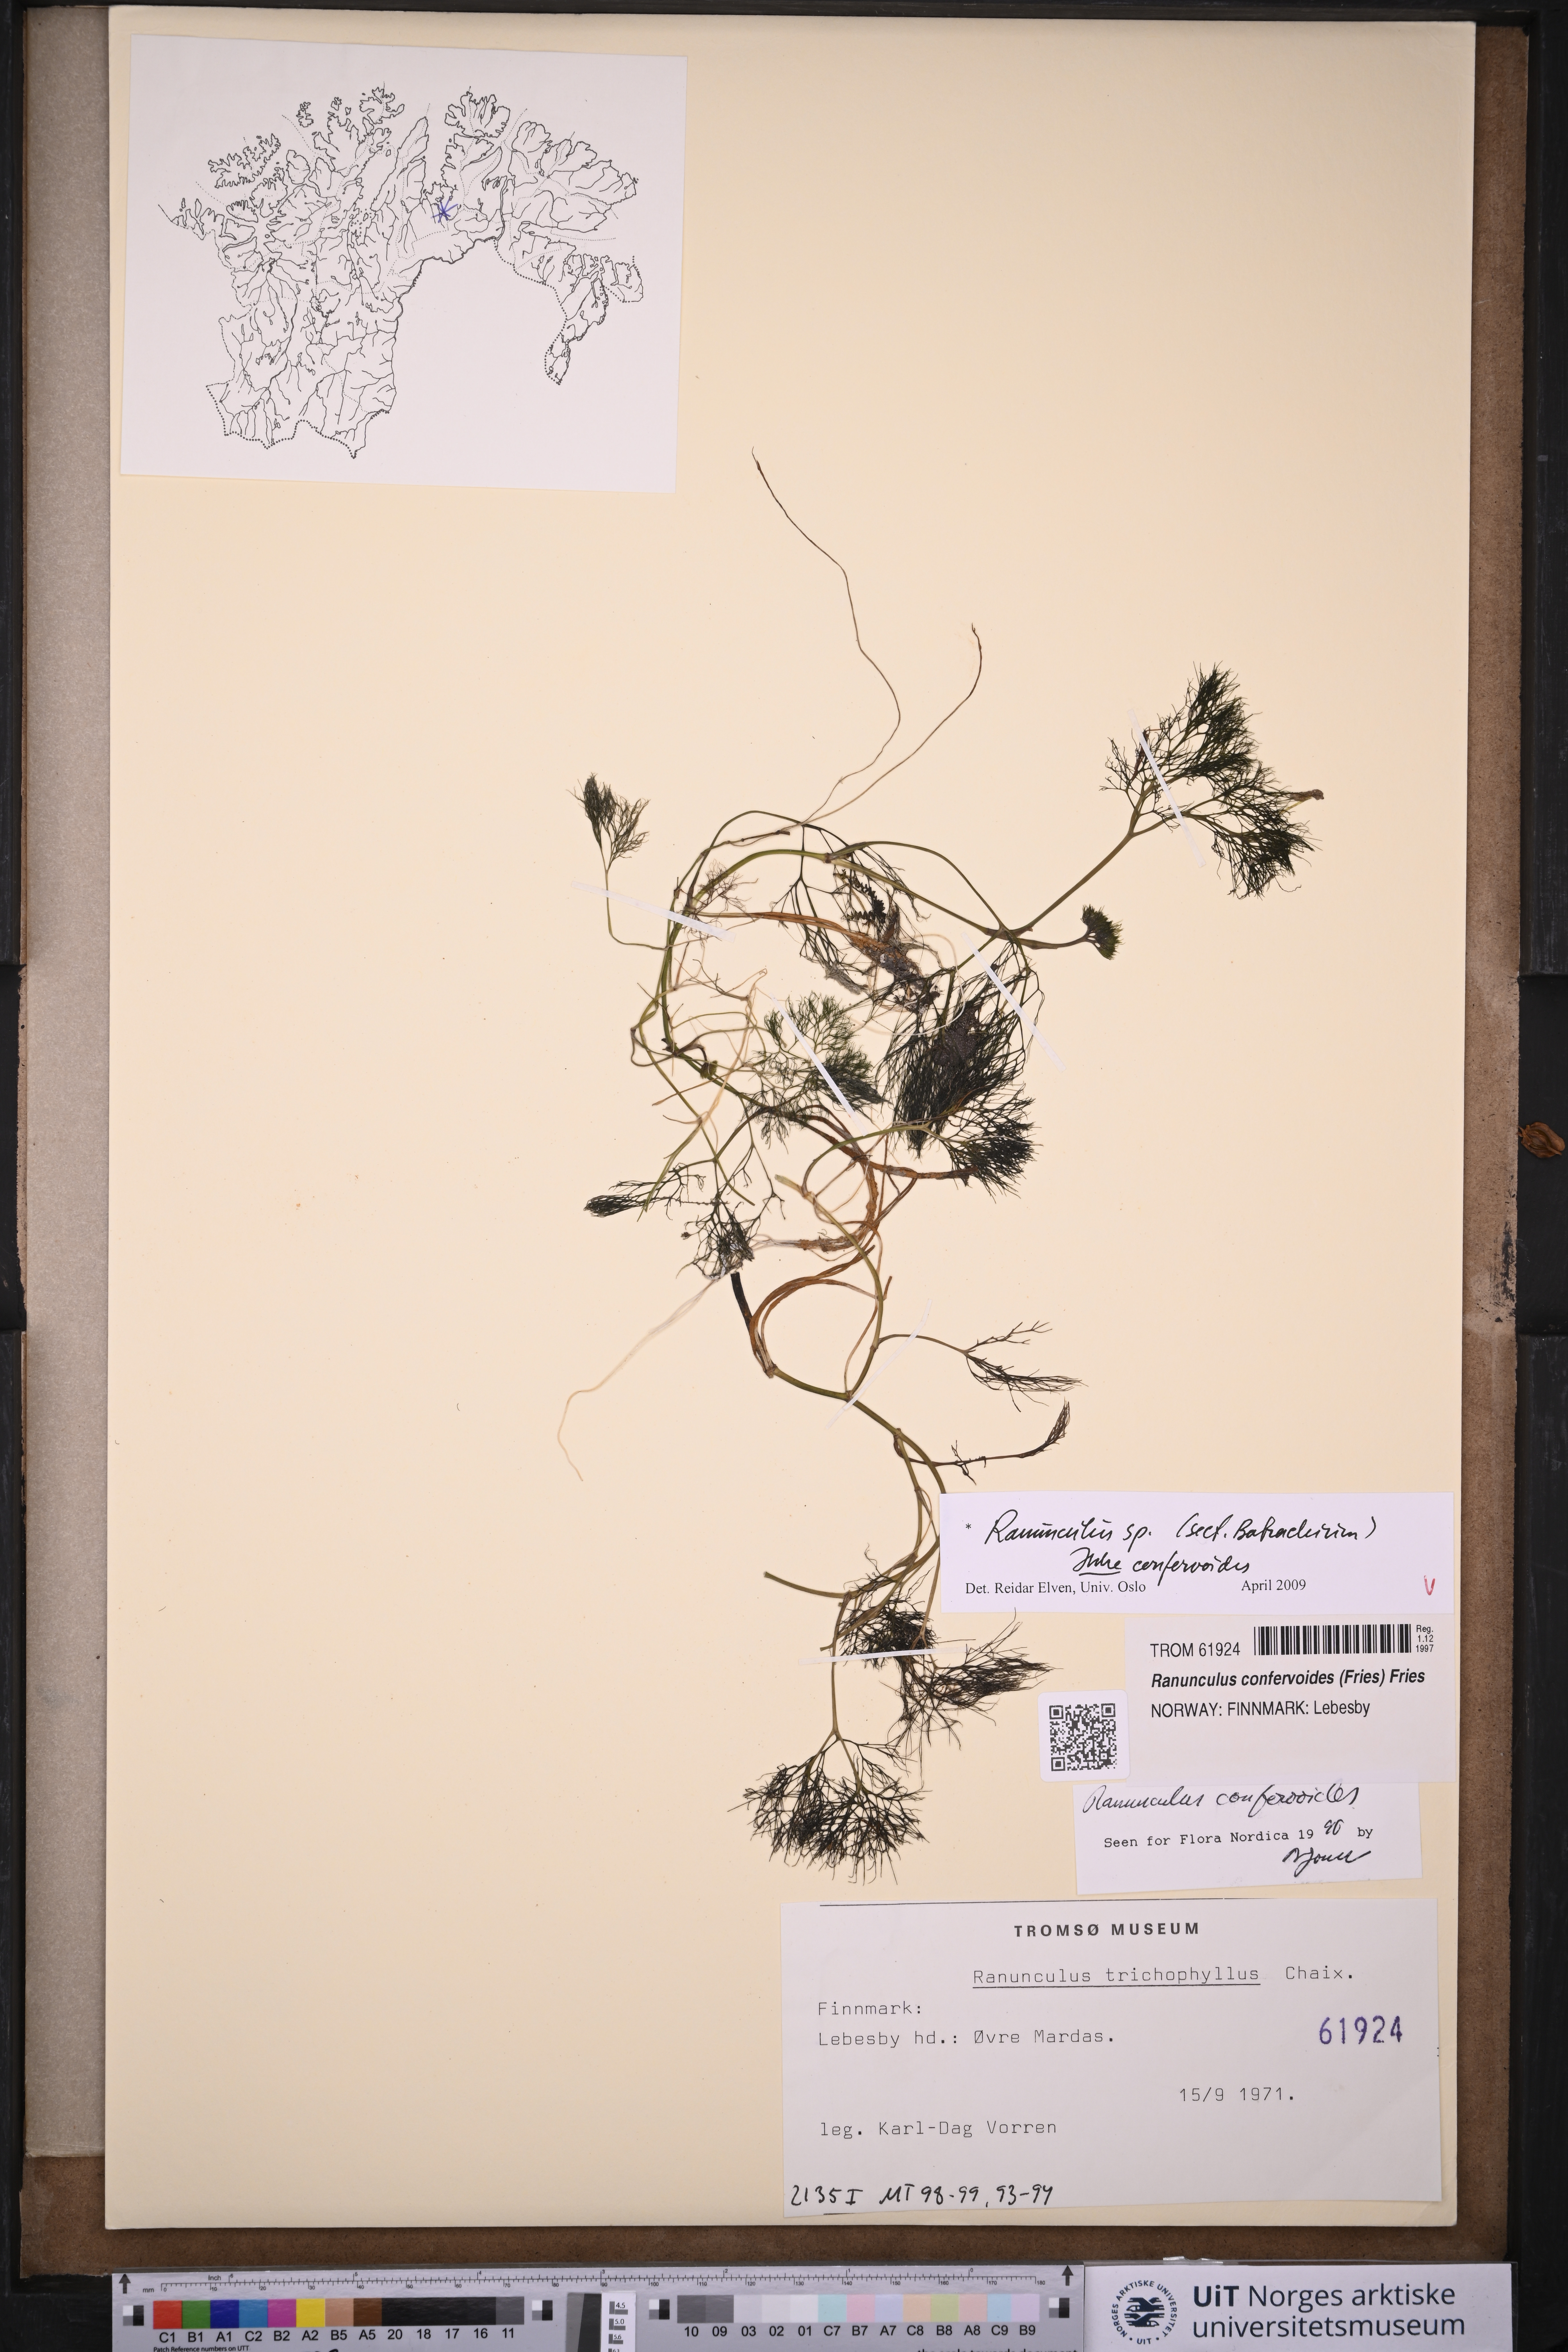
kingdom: Plantae
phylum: Tracheophyta
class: Magnoliopsida
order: Ranunculales
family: Ranunculaceae
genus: Ranunculus
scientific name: Ranunculus
